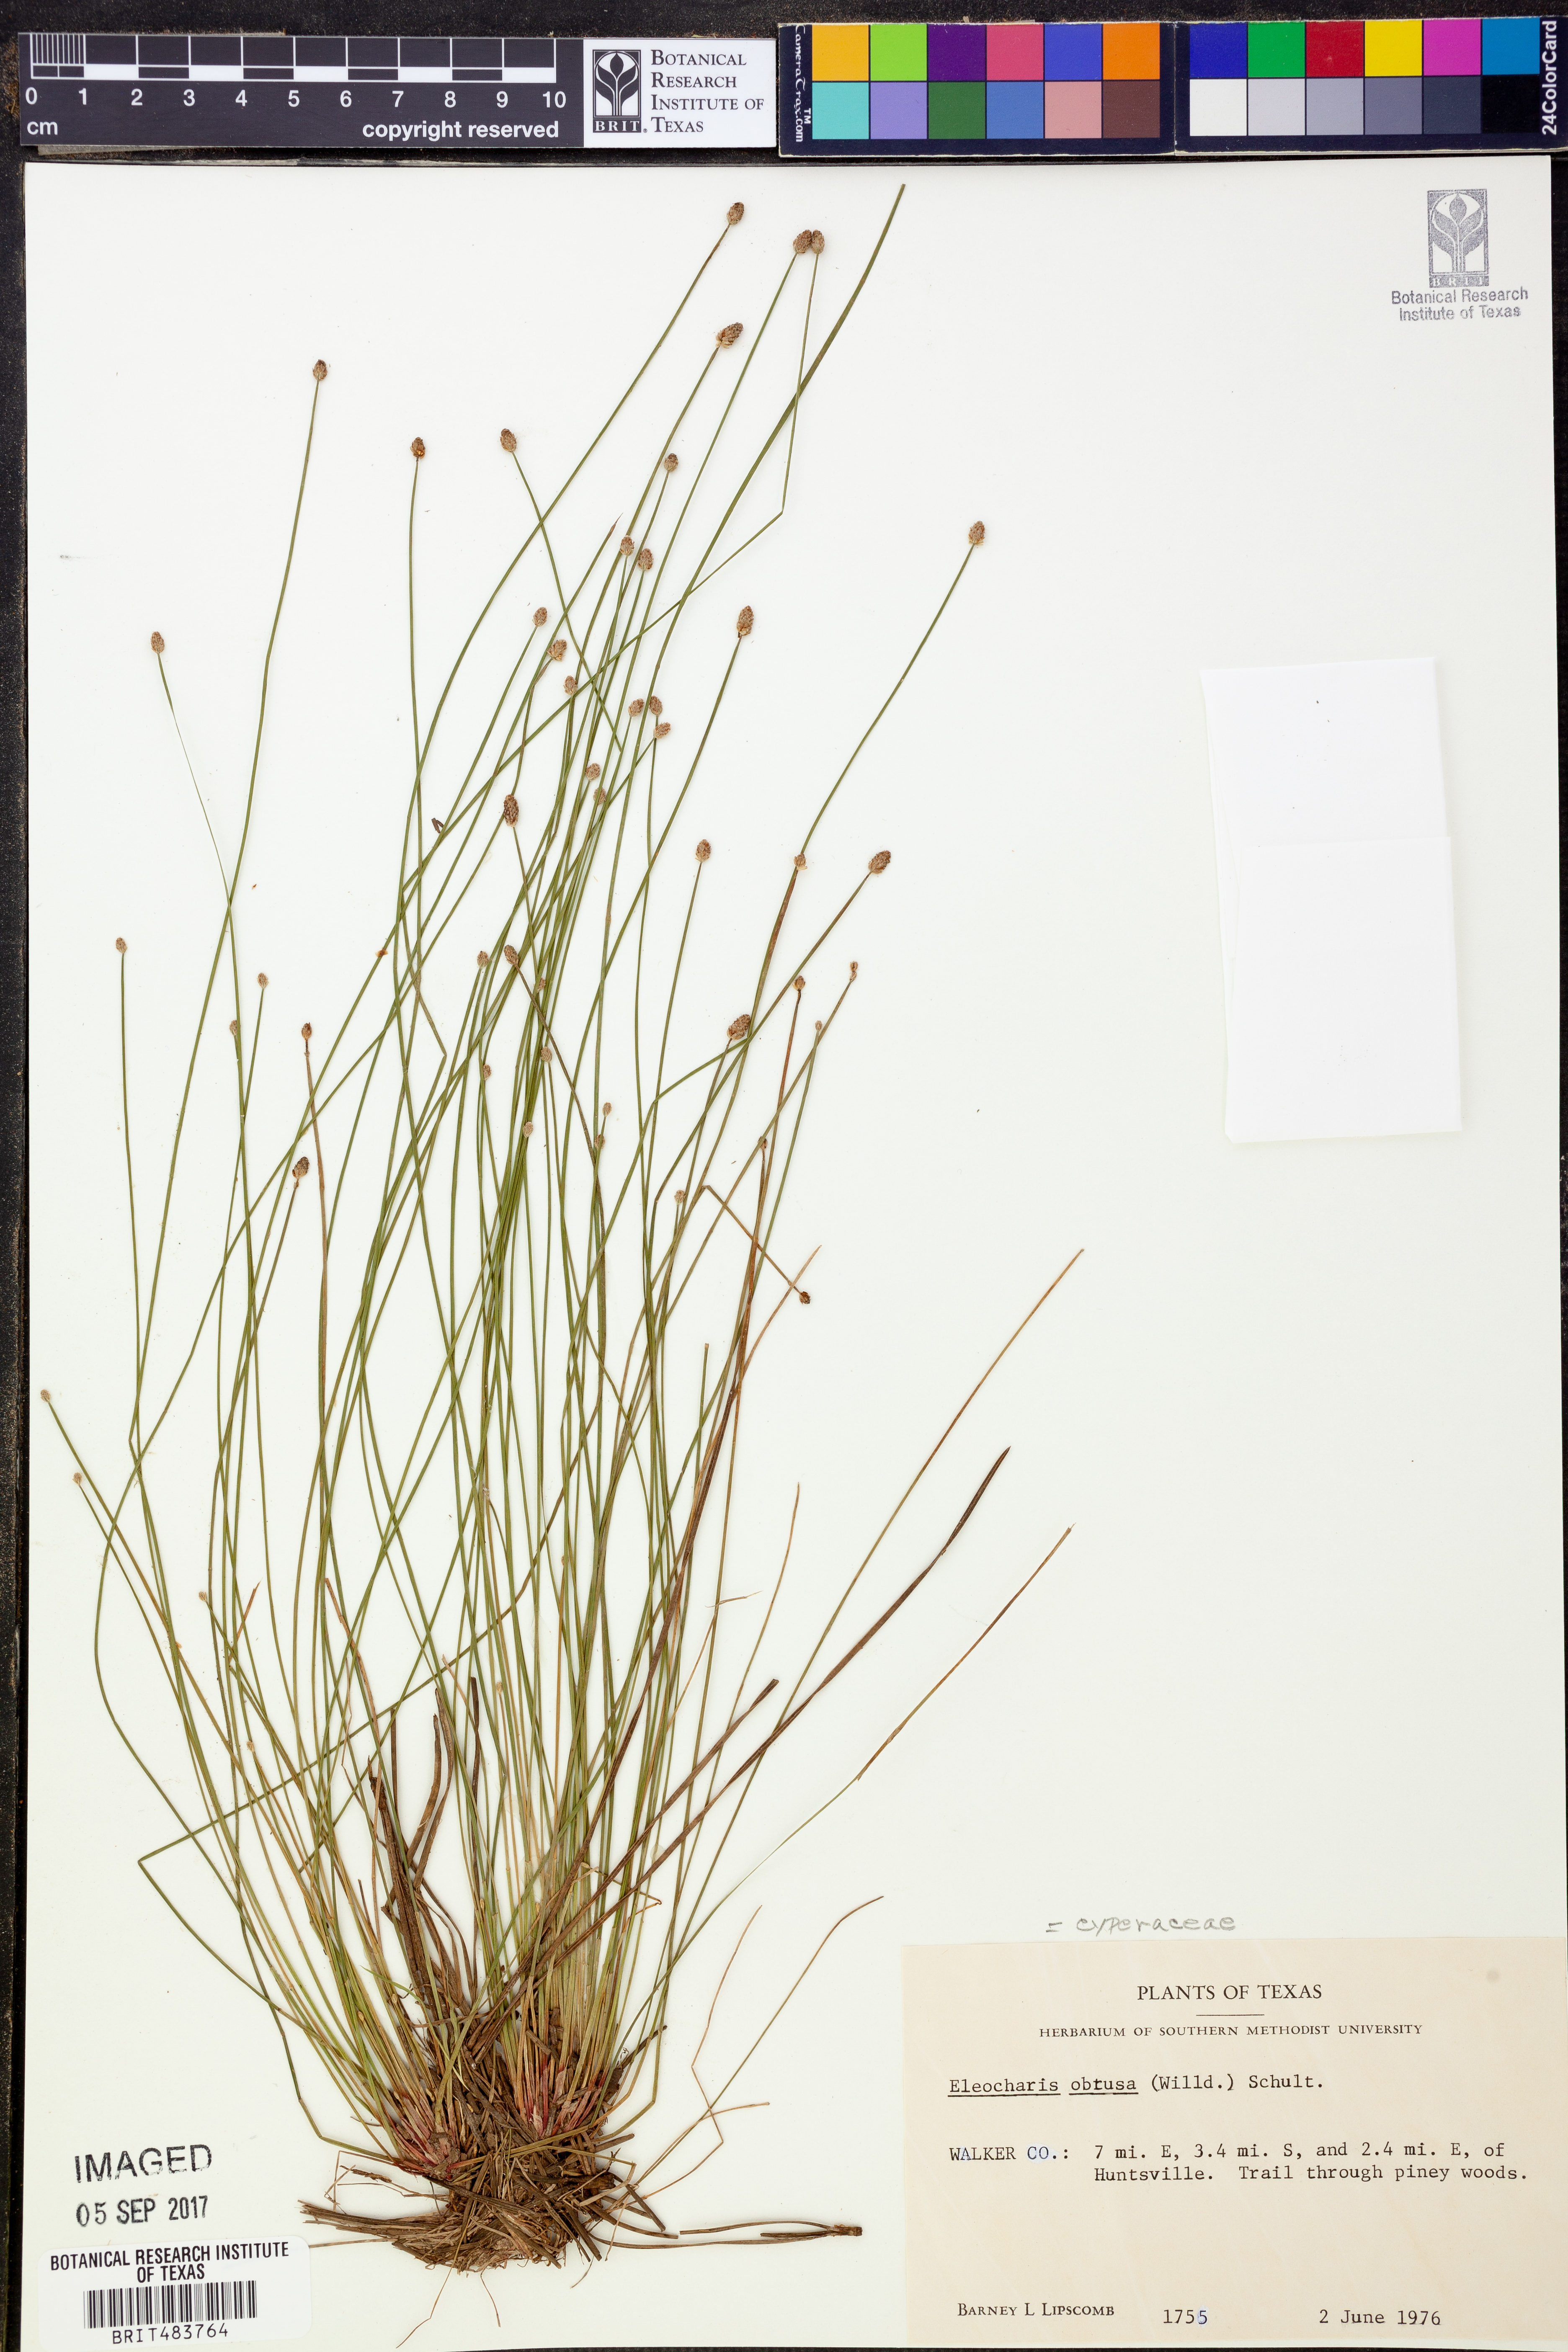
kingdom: Plantae
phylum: Tracheophyta
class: Liliopsida
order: Poales
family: Cyperaceae
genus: Eleocharis
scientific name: Eleocharis obtusa
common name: Blunt spikerush
